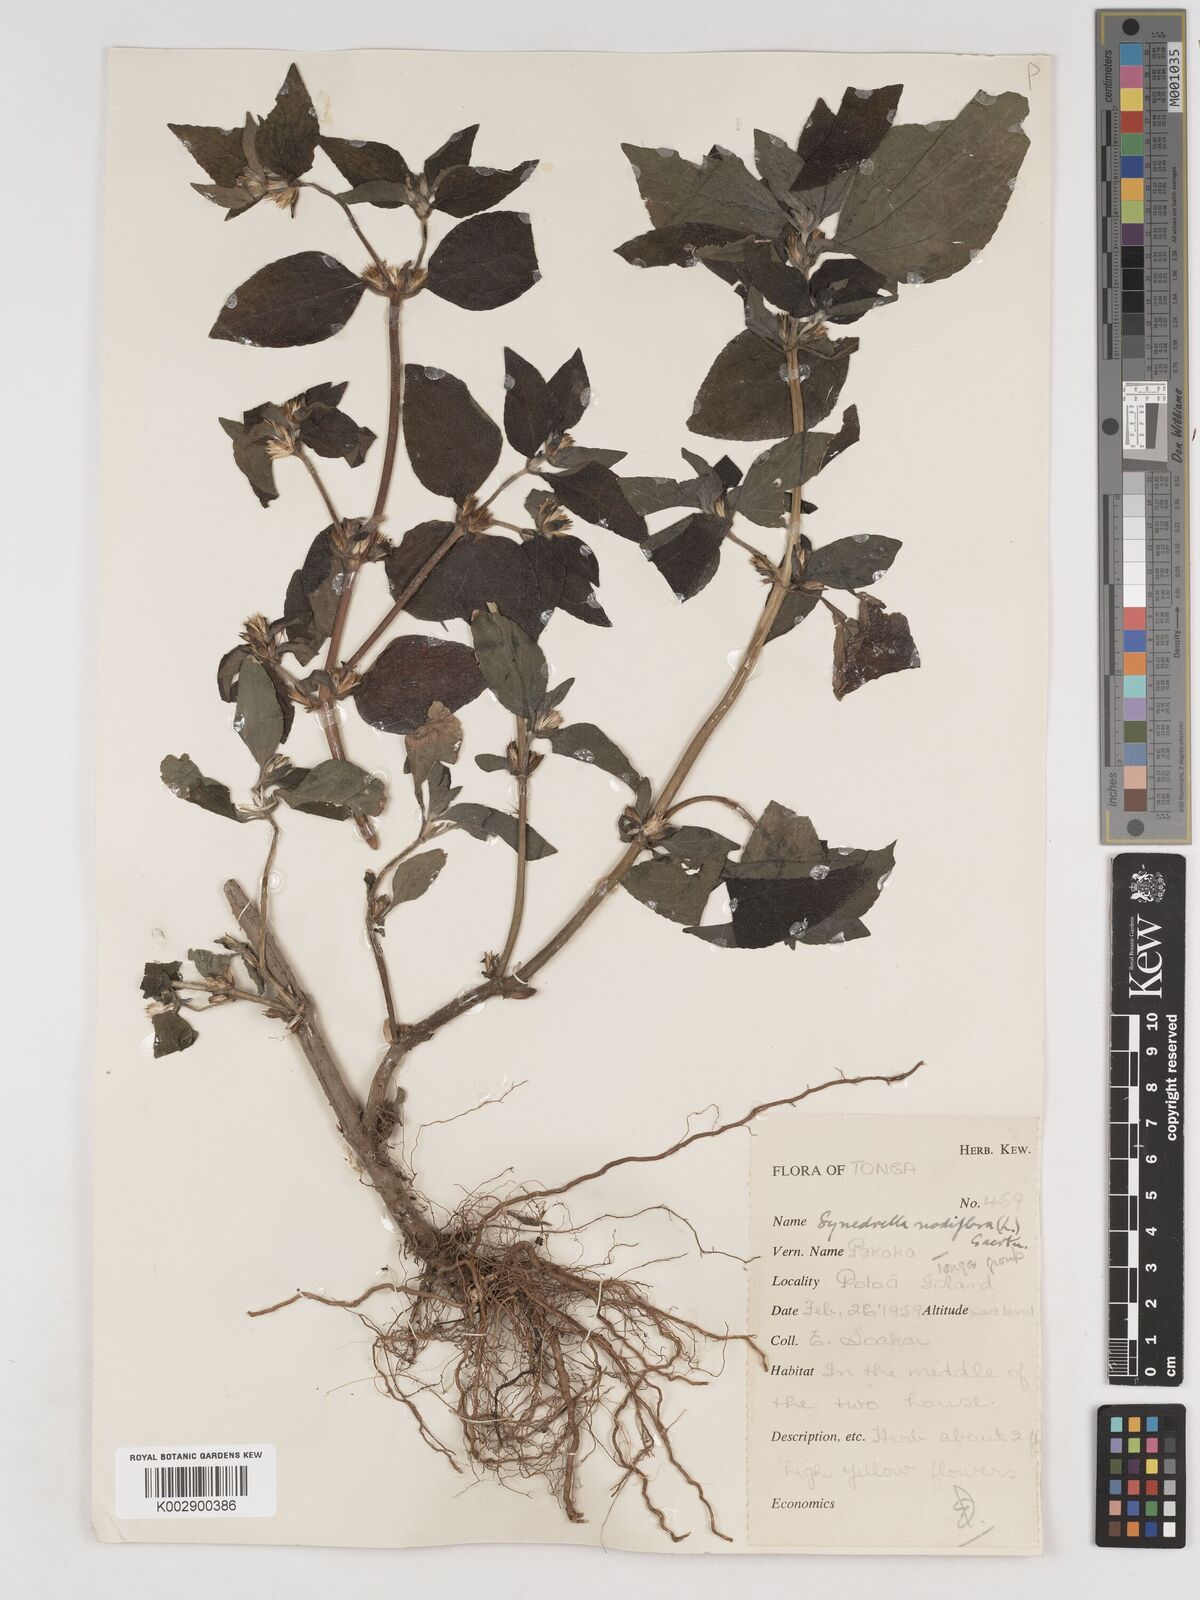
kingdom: Plantae
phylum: Tracheophyta
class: Magnoliopsida
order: Asterales
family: Asteraceae
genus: Synedrella
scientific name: Synedrella nodiflora
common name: Nodeweed
